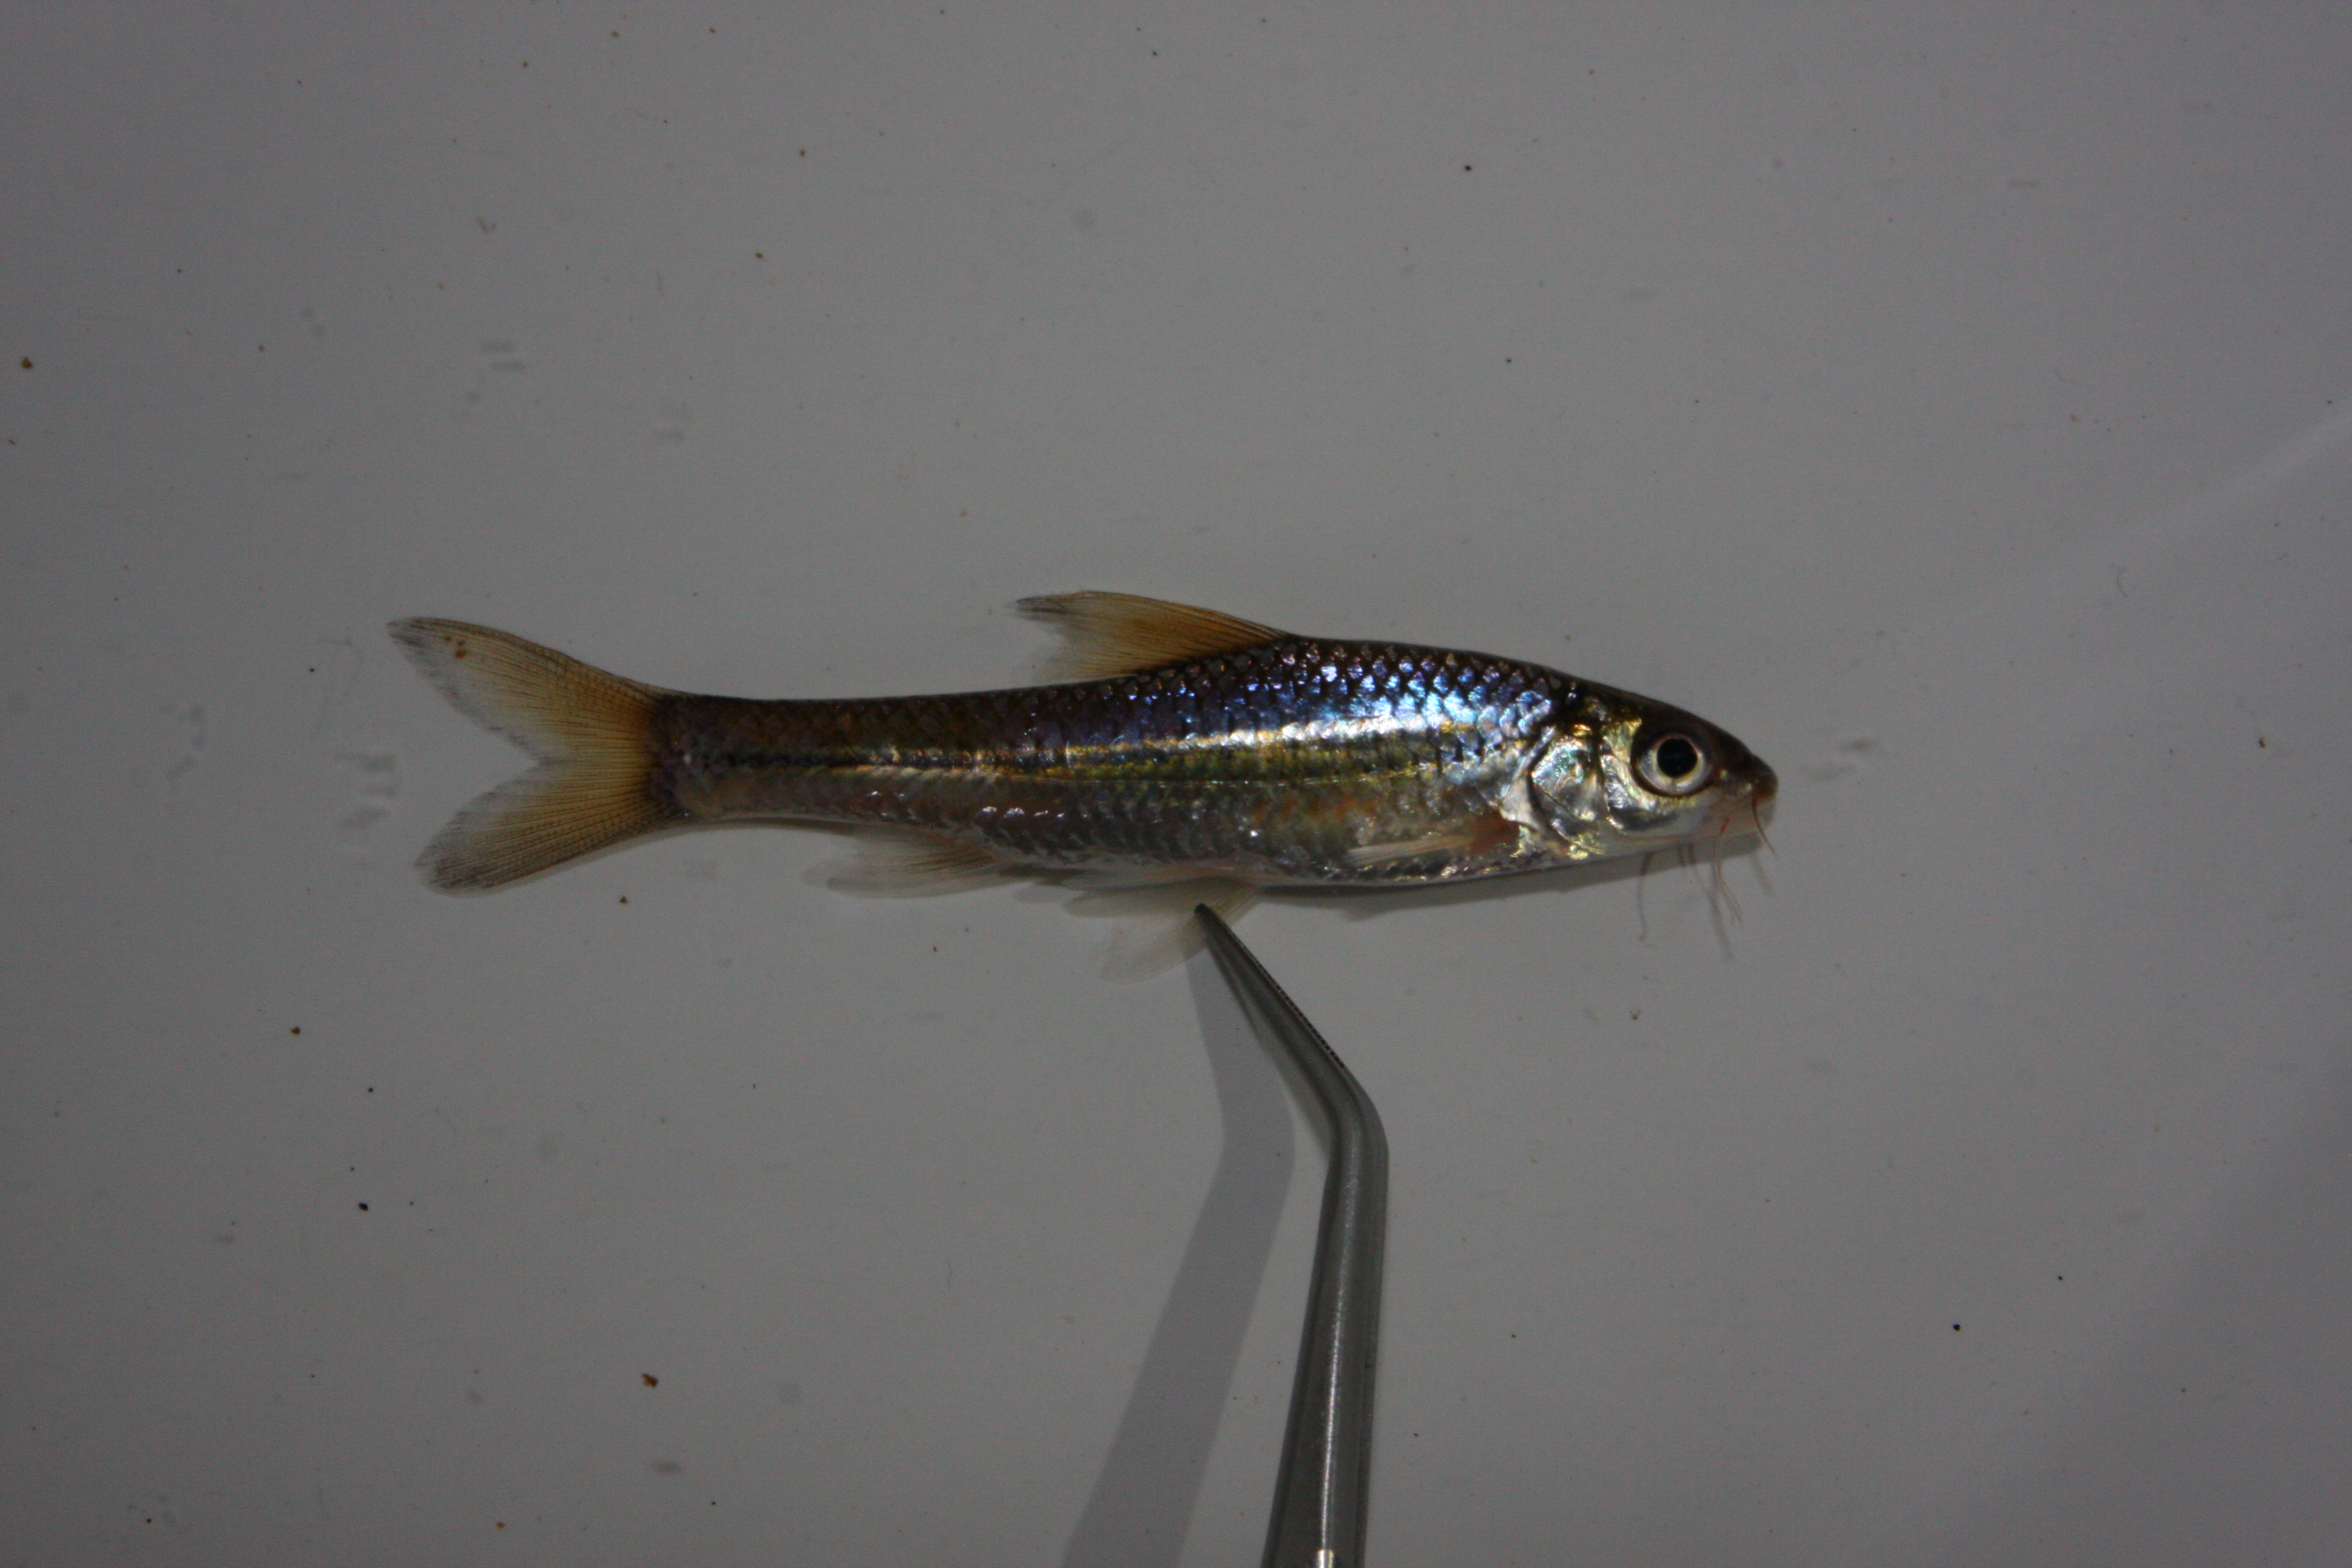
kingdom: Animalia
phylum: Chordata
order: Cypriniformes
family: Cyprinidae
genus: Enteromius
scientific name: Enteromius unitaeniatus
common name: Longbeard barb
